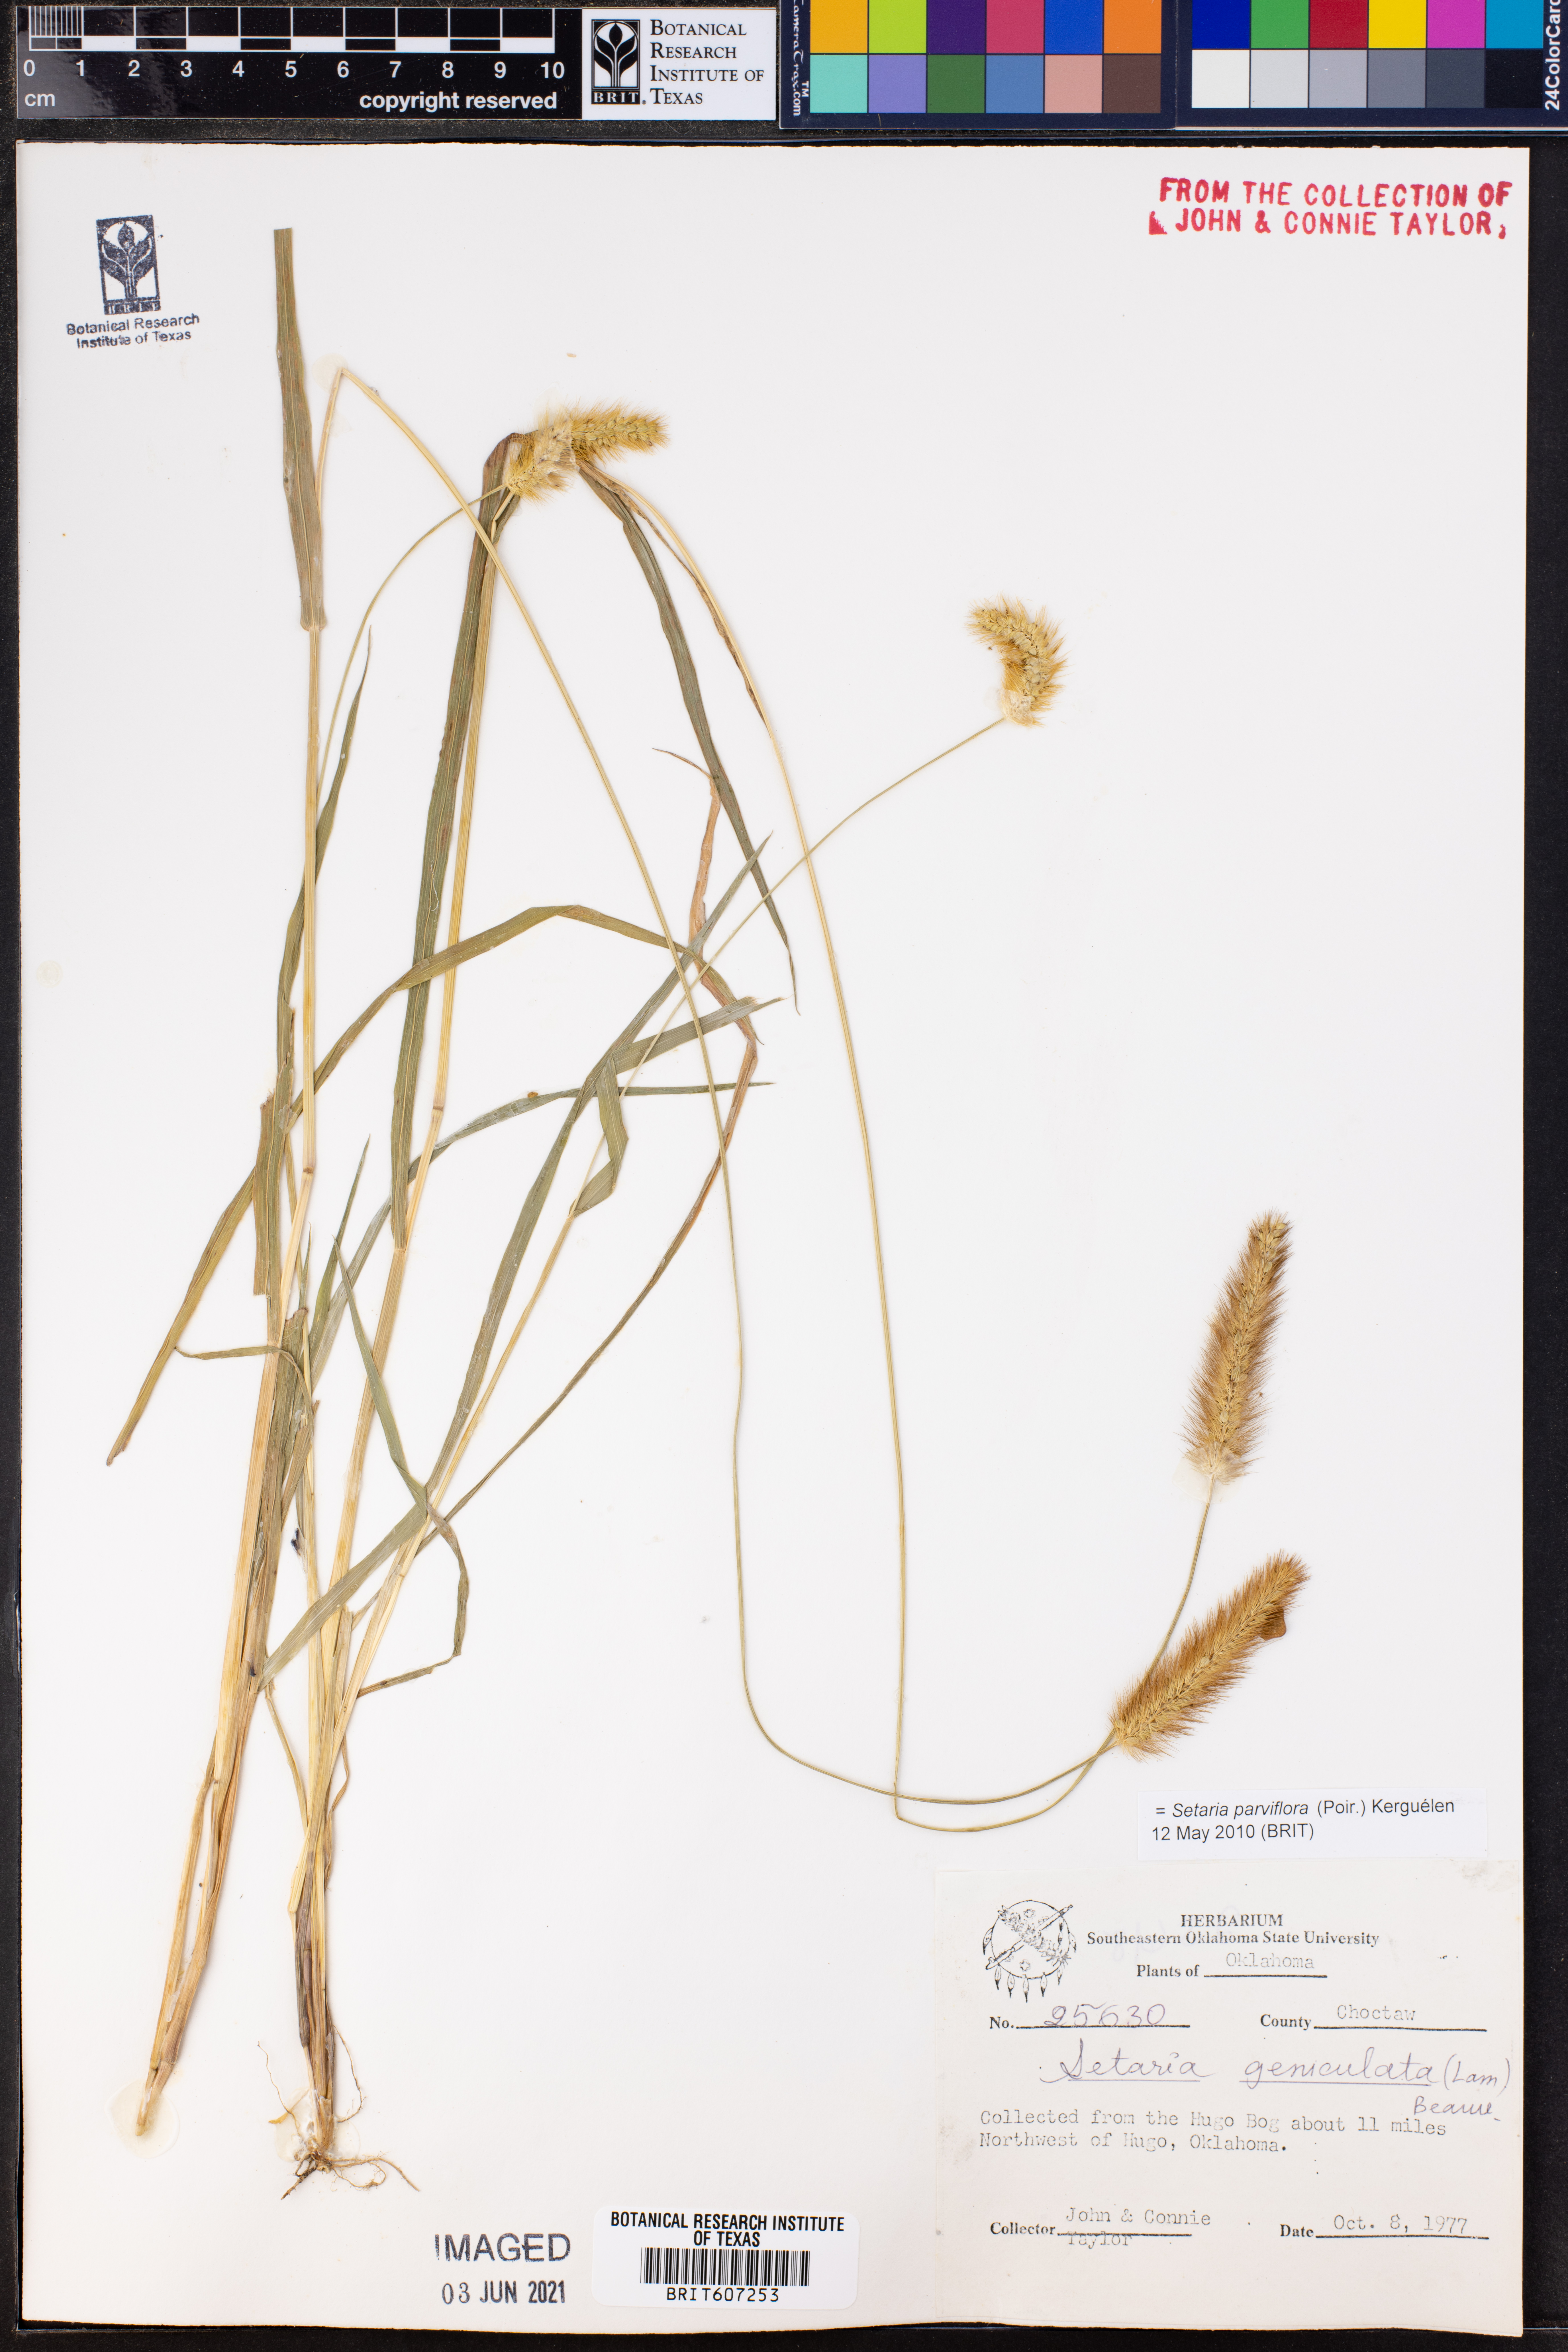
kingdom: Plantae
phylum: Tracheophyta
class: Liliopsida
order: Poales
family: Poaceae
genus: Setaria
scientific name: Setaria parviflora
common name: Knotroot bristle-grass
